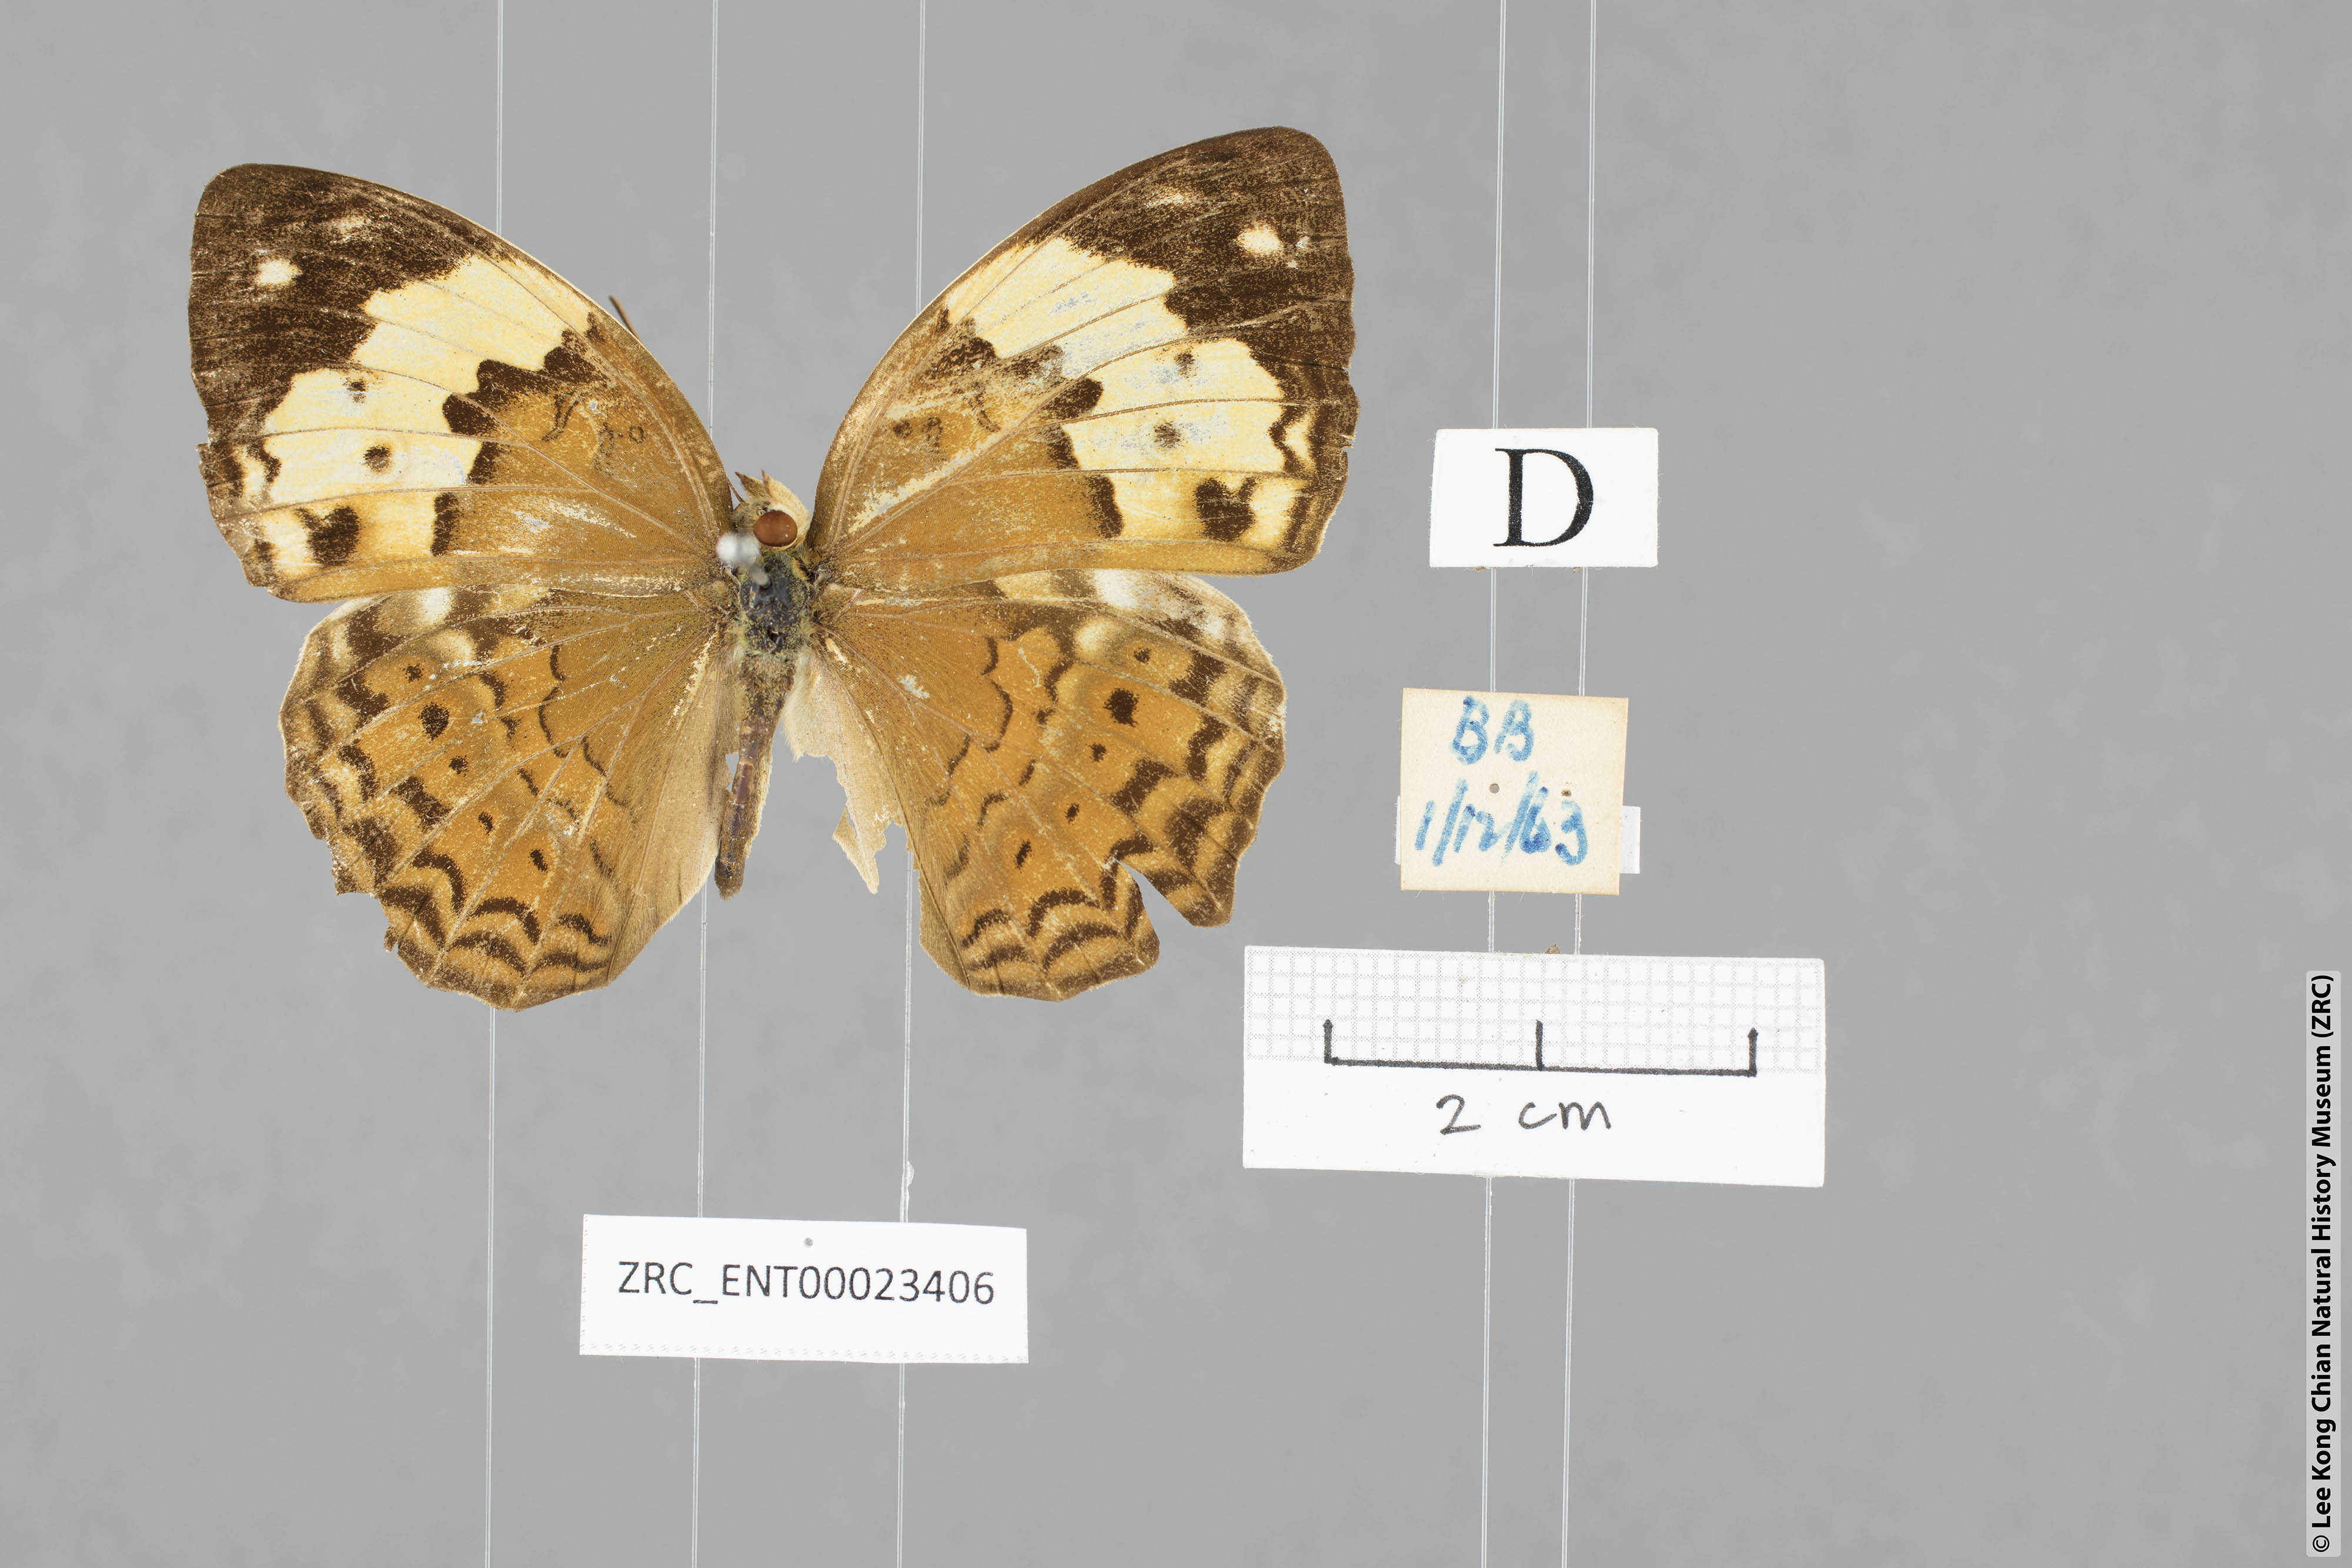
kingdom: Animalia
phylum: Arthropoda
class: Insecta
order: Lepidoptera
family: Nymphalidae
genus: Cupha
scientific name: Cupha erymanthis
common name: Rustic
